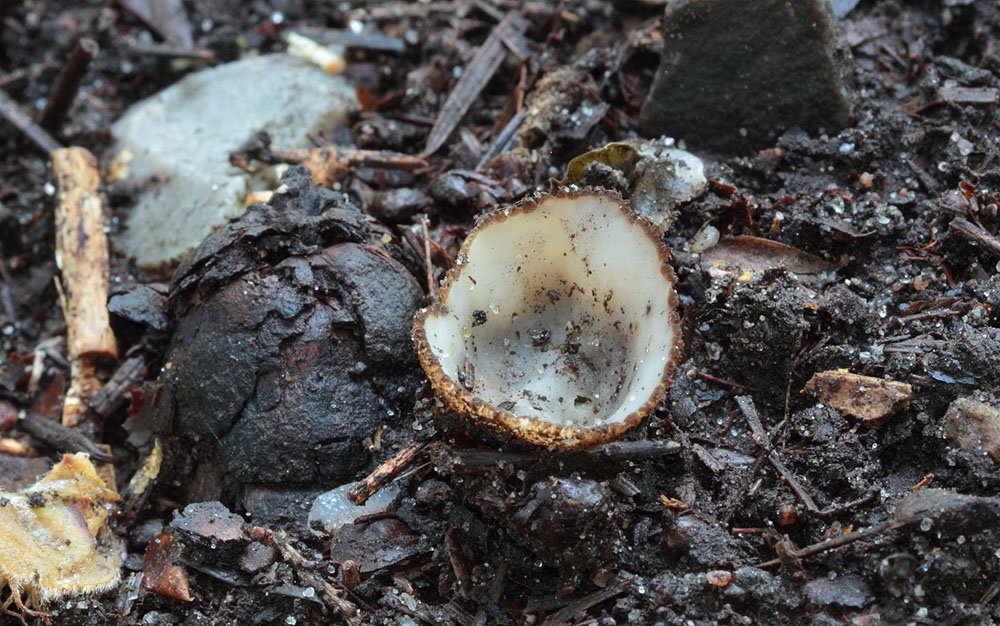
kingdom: Fungi
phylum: Ascomycota
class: Pezizomycetes
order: Pezizales
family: Pyronemataceae
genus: Geopora
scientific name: Geopora cervina
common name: hjortebrun jordbæger
